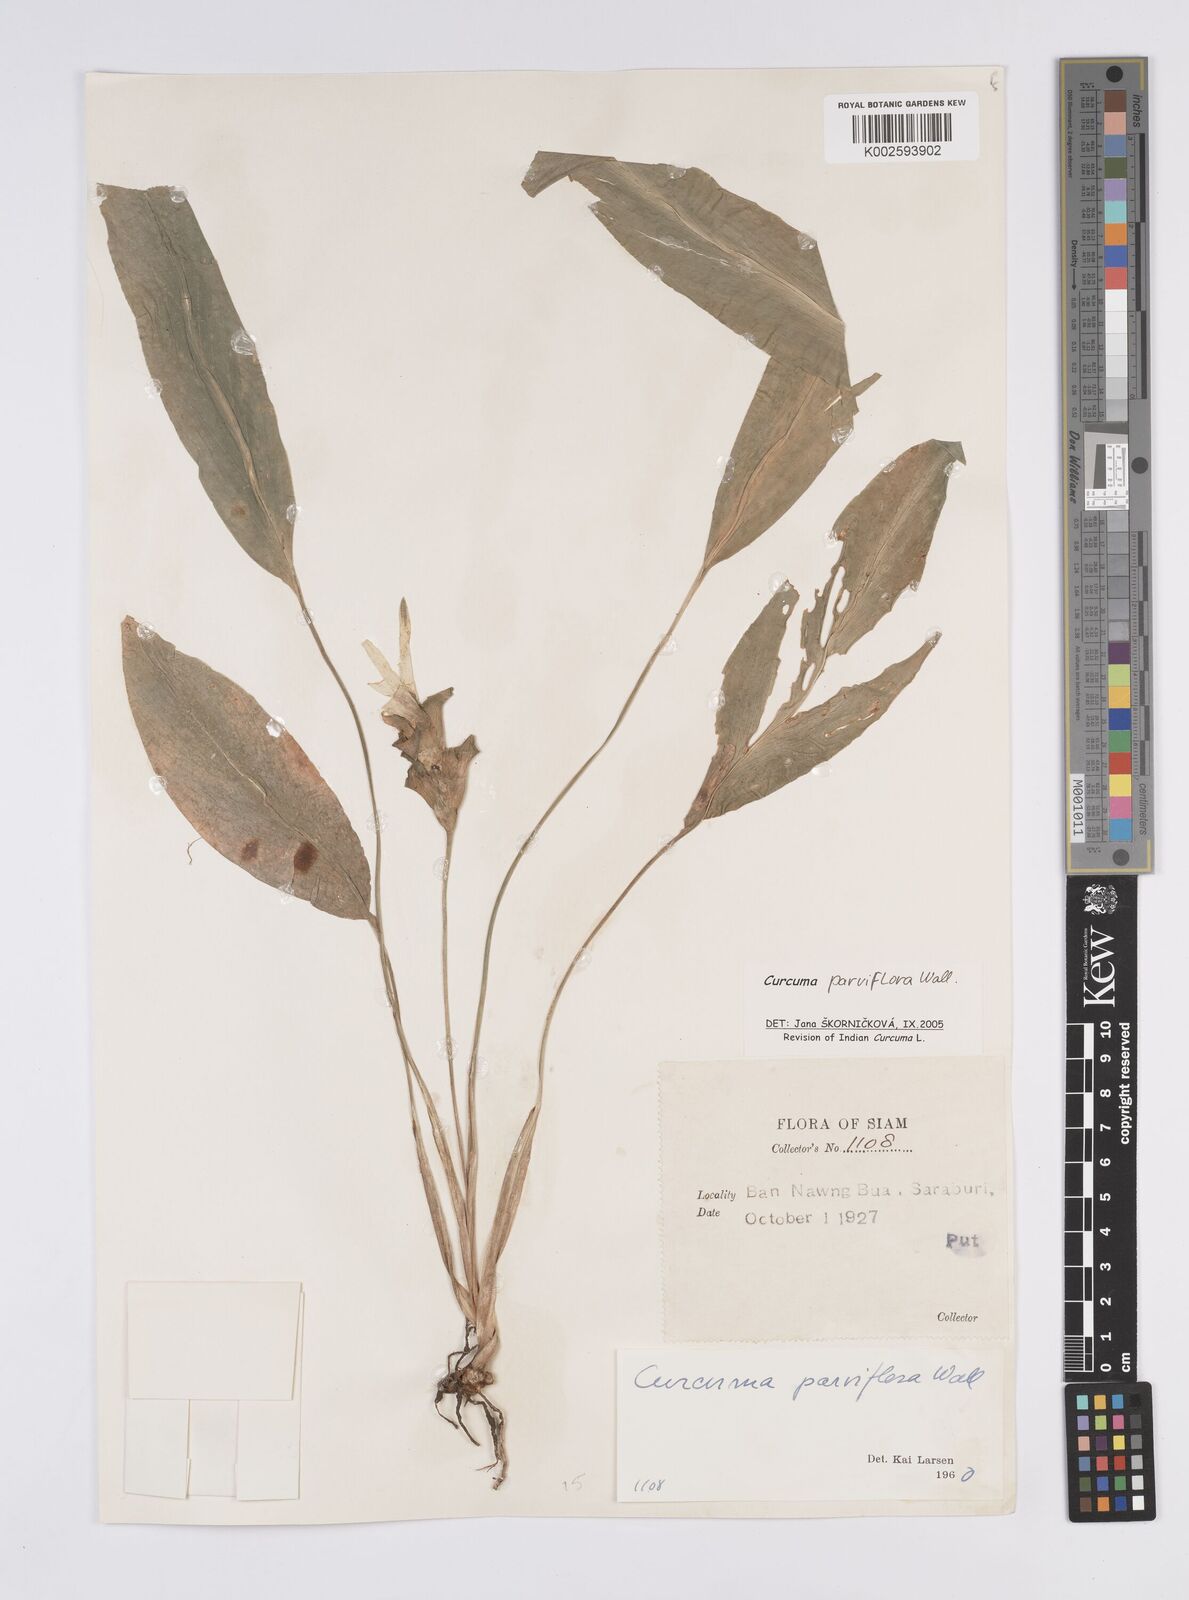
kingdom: Plantae
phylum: Tracheophyta
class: Liliopsida
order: Zingiberales
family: Zingiberaceae
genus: Curcuma
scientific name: Curcuma parviflora
